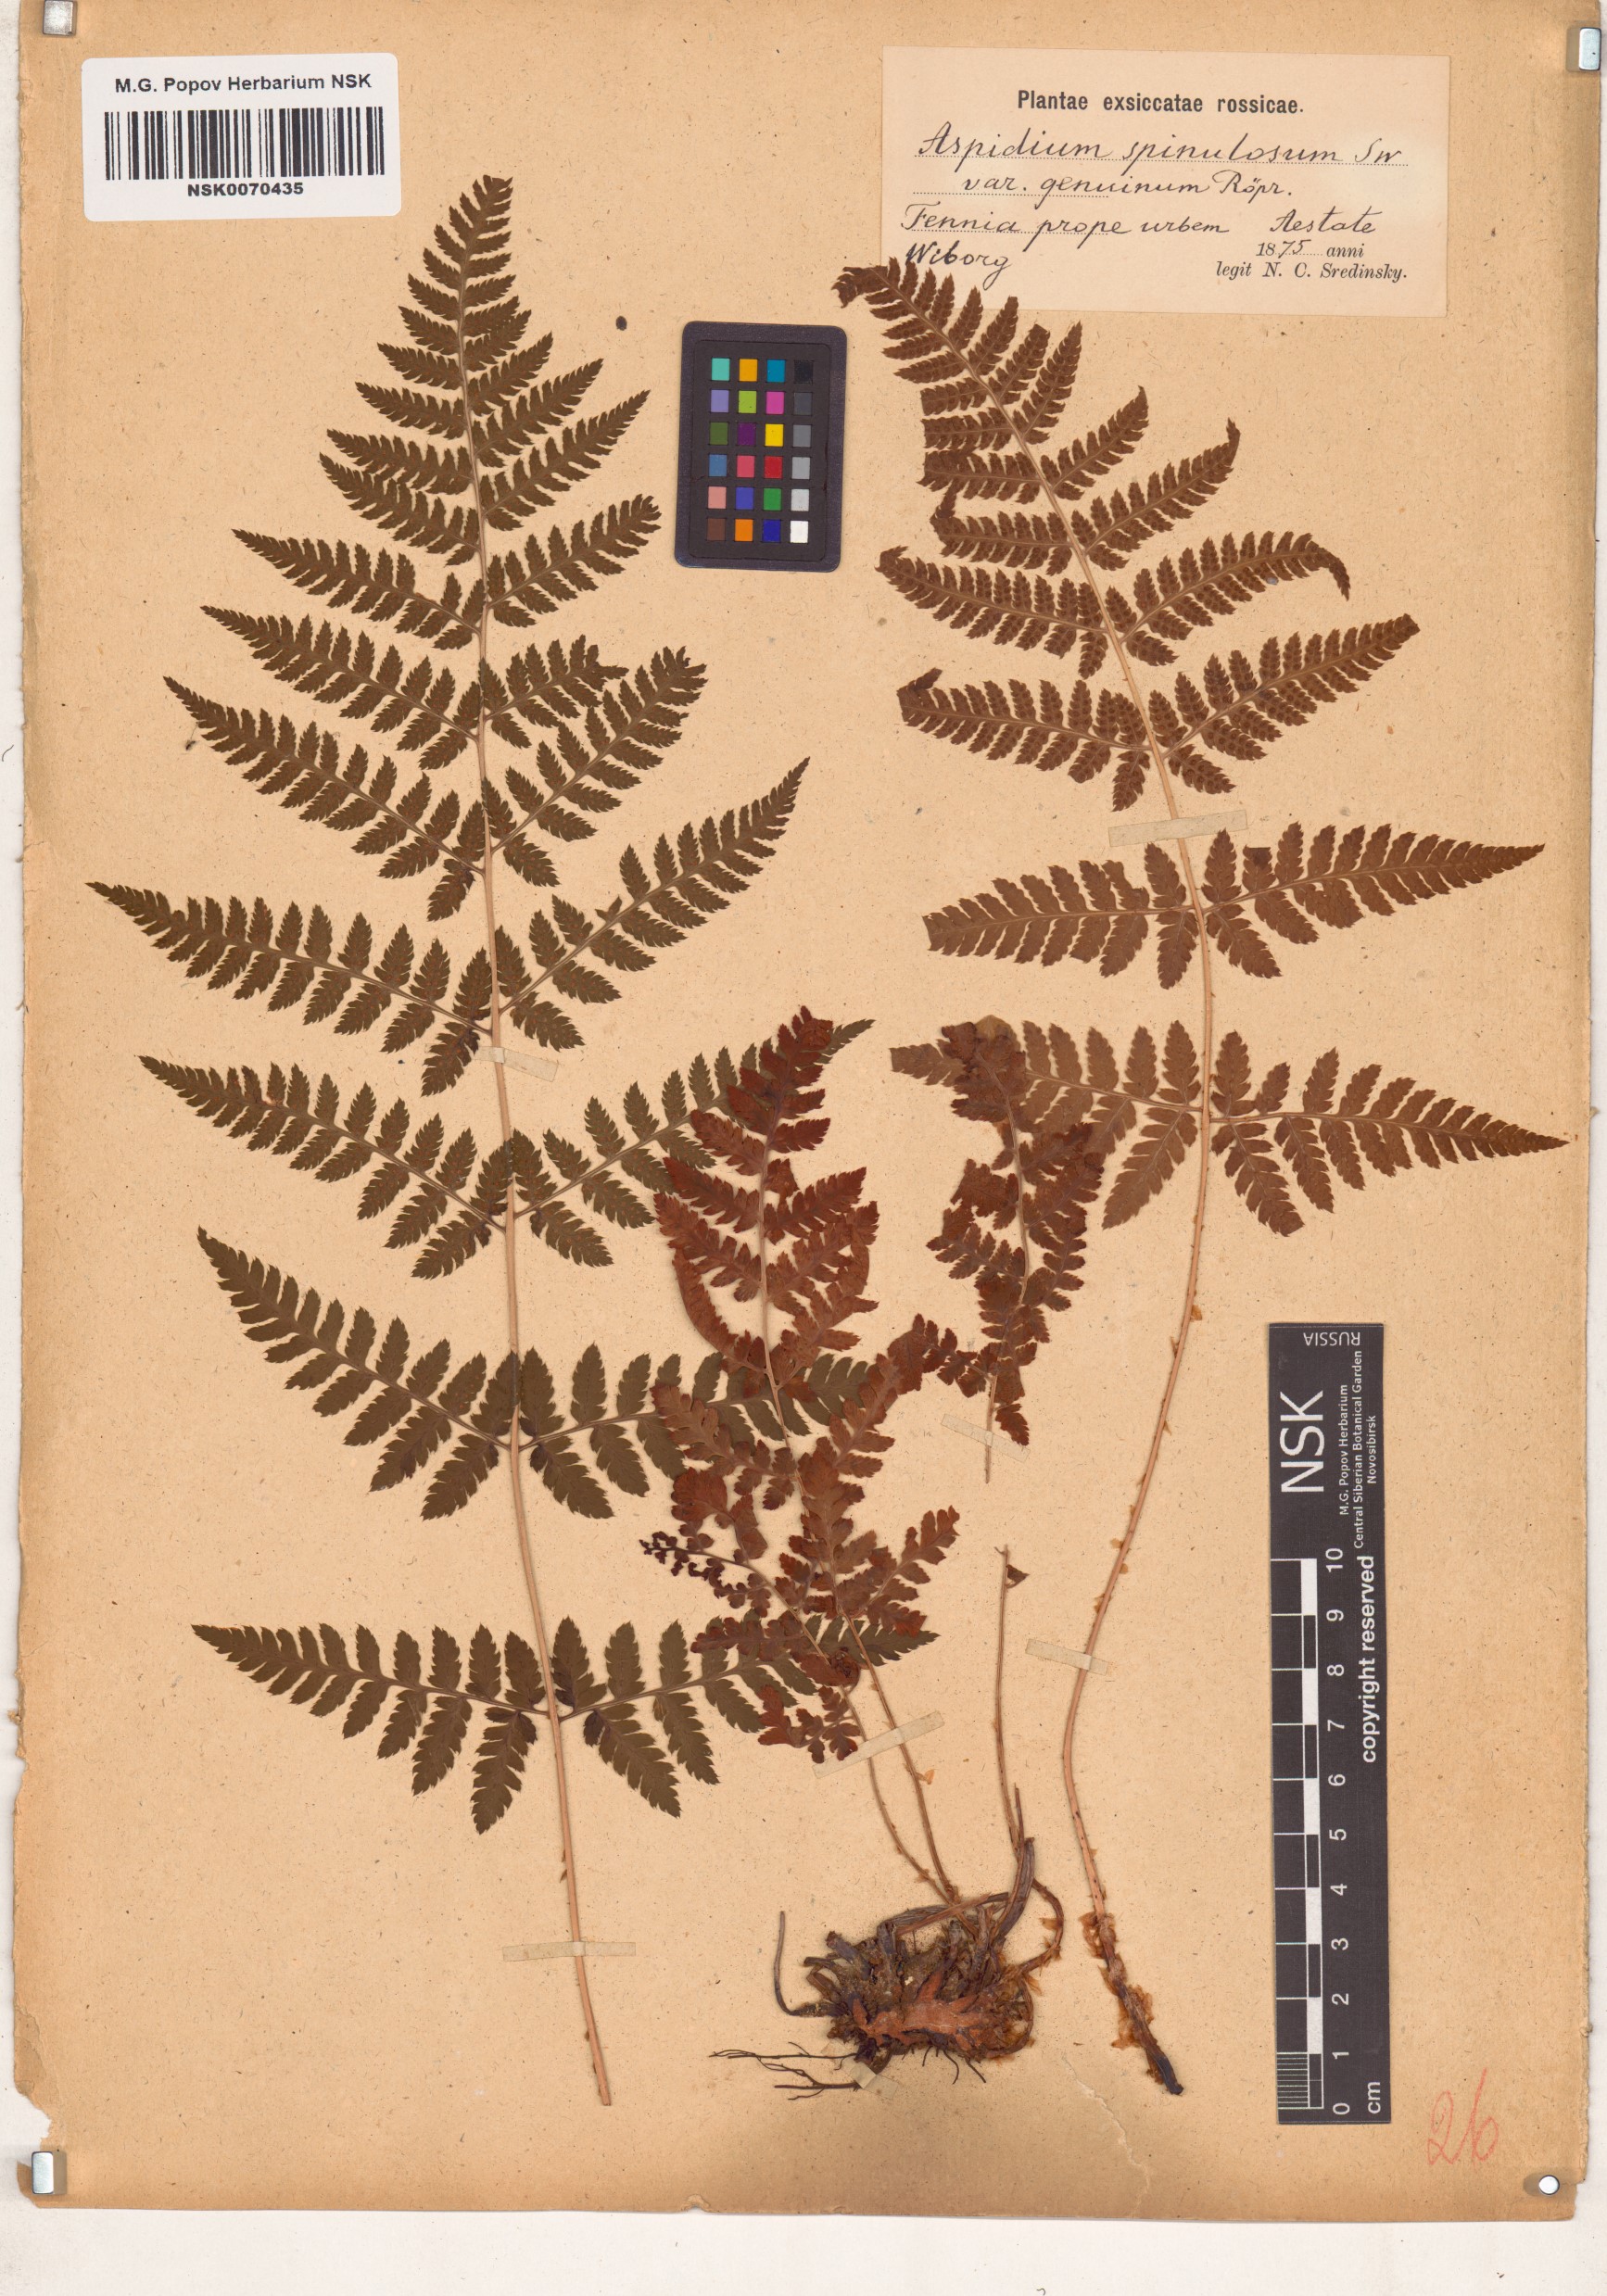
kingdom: Plantae
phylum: Tracheophyta
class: Polypodiopsida
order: Polypodiales
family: Dryopteridaceae
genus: Dryopteris
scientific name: Dryopteris carthusiana
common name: Narrow buckler-fern
